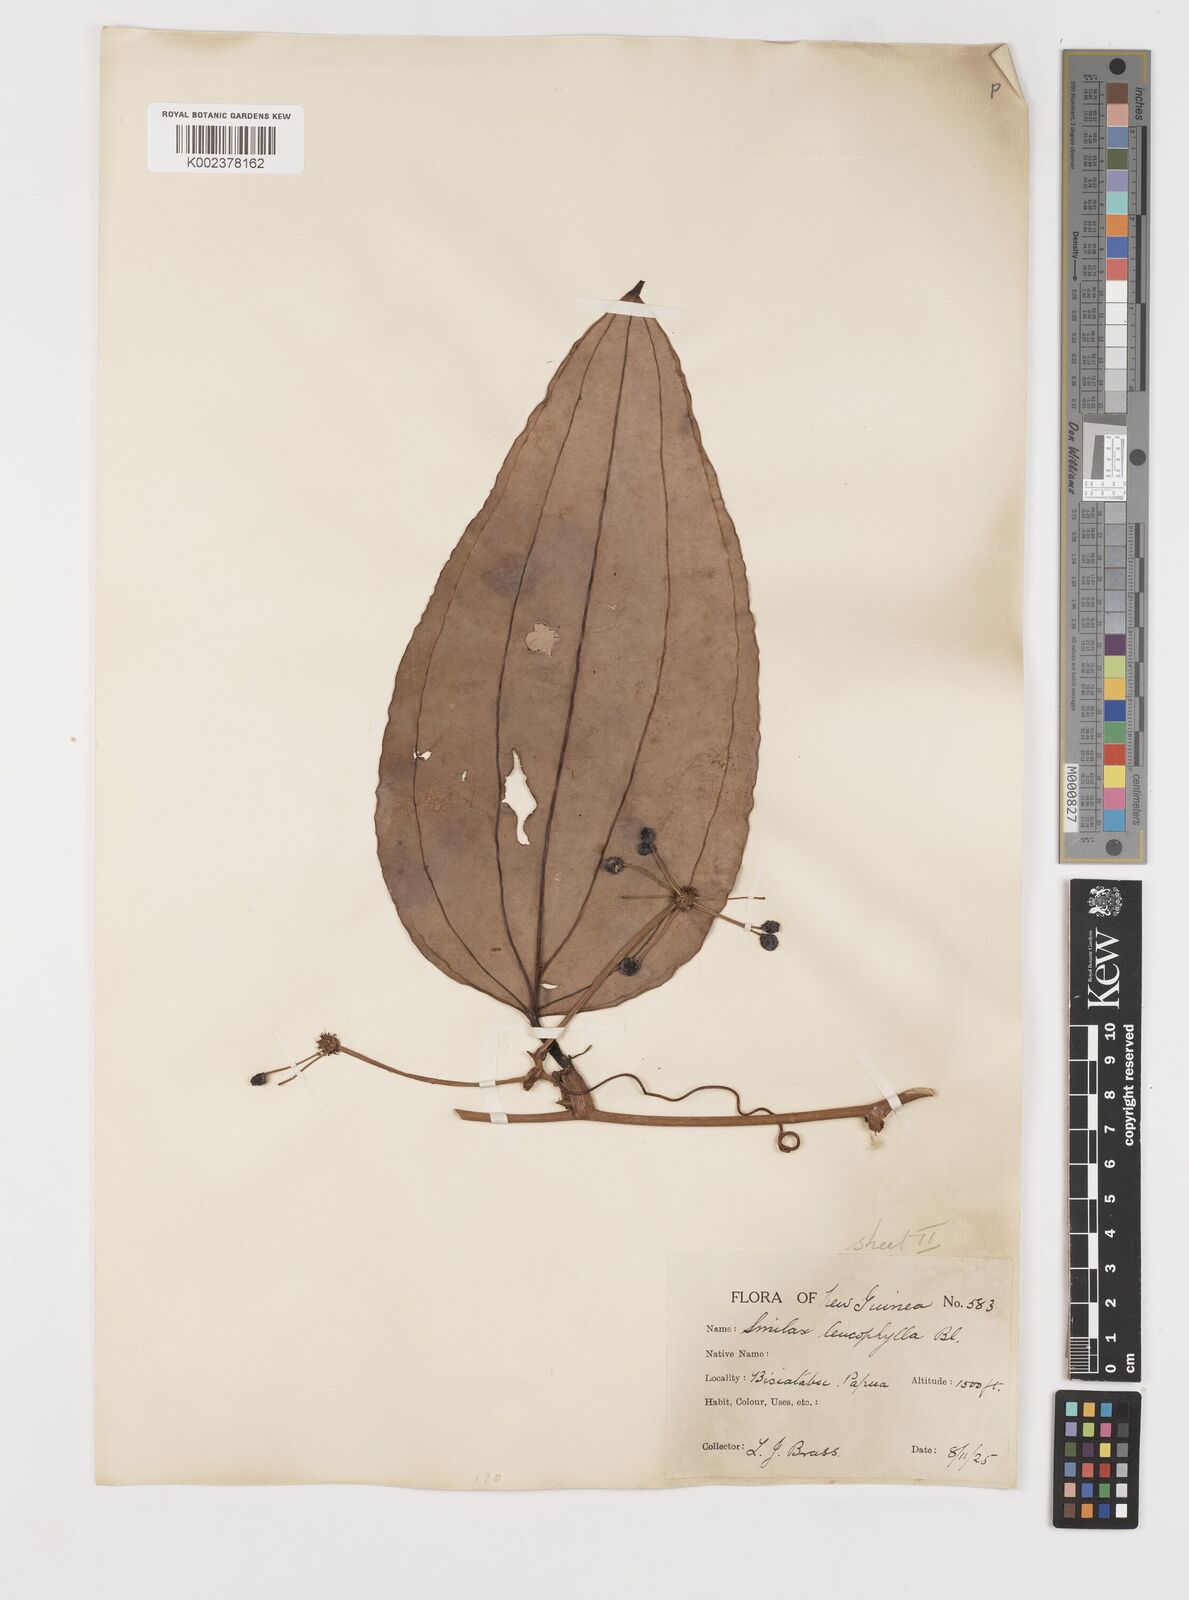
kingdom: Plantae
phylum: Tracheophyta
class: Liliopsida
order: Liliales
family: Smilacaceae
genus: Smilax
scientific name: Smilax leucophylla
